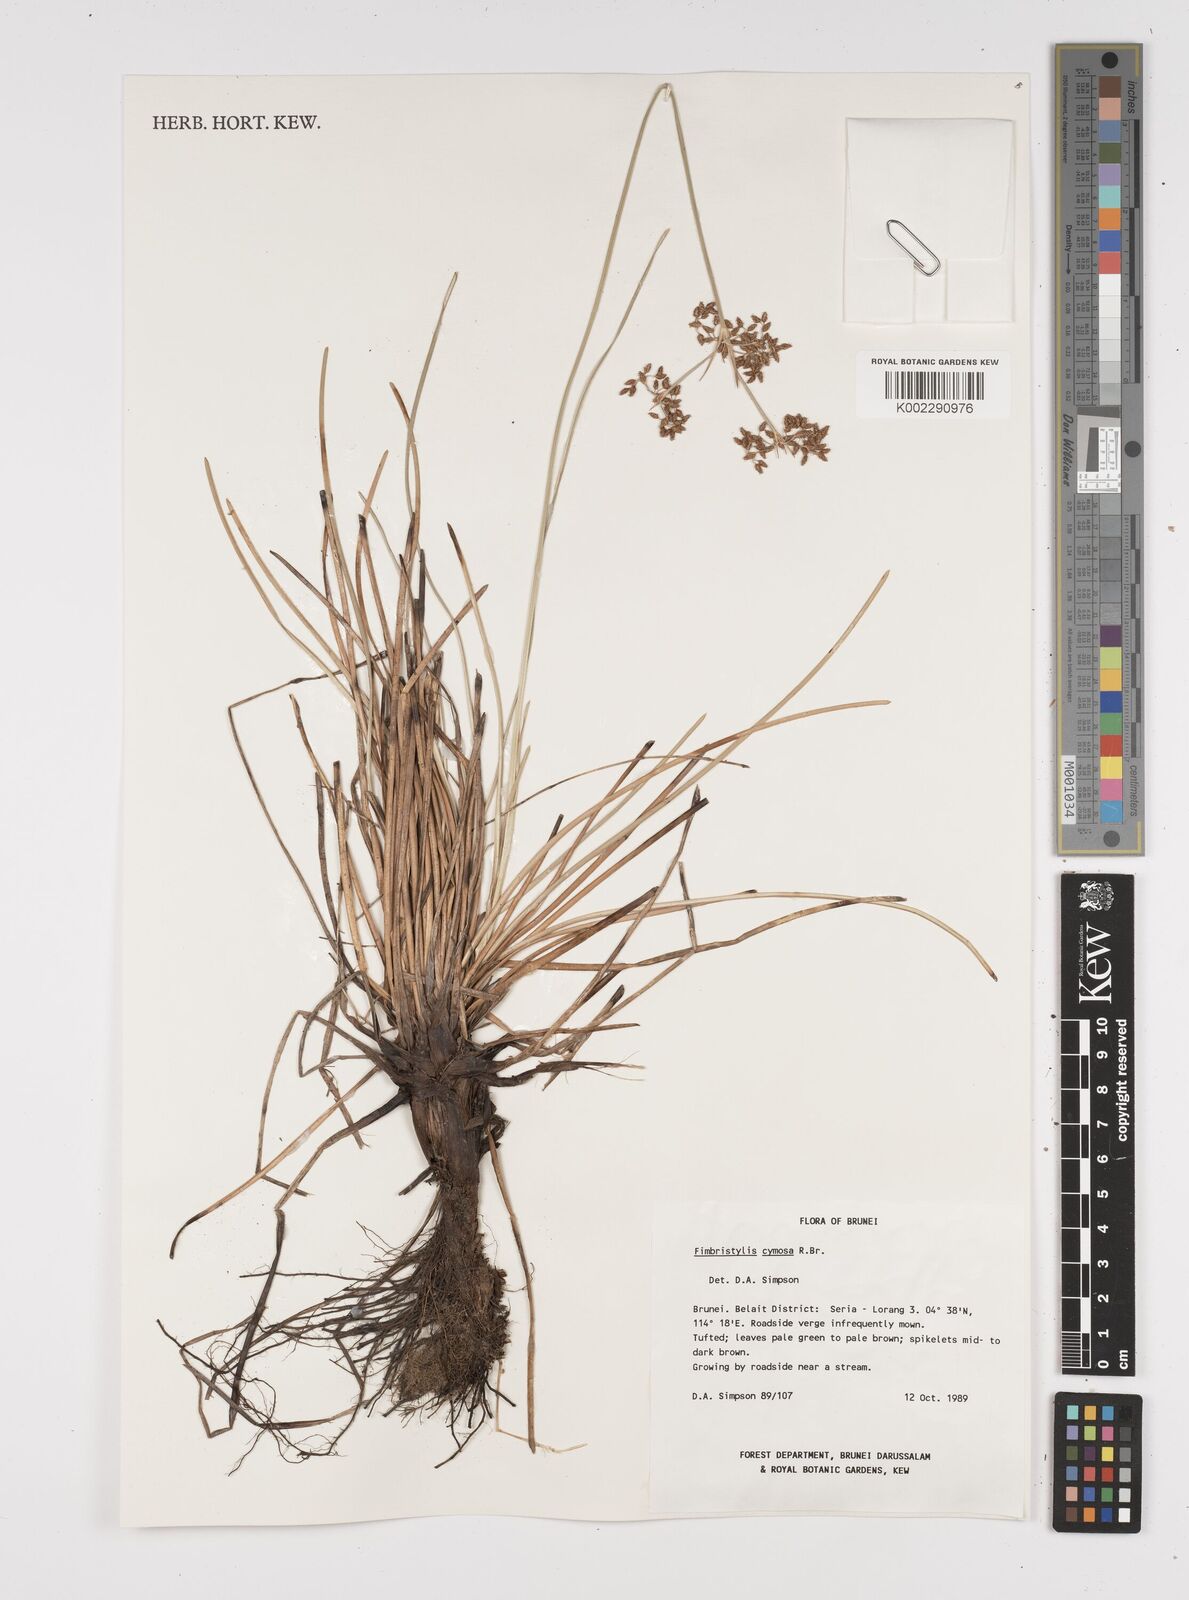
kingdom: Plantae
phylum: Tracheophyta
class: Liliopsida
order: Poales
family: Cyperaceae
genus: Fimbristylis
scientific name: Fimbristylis cymosa
